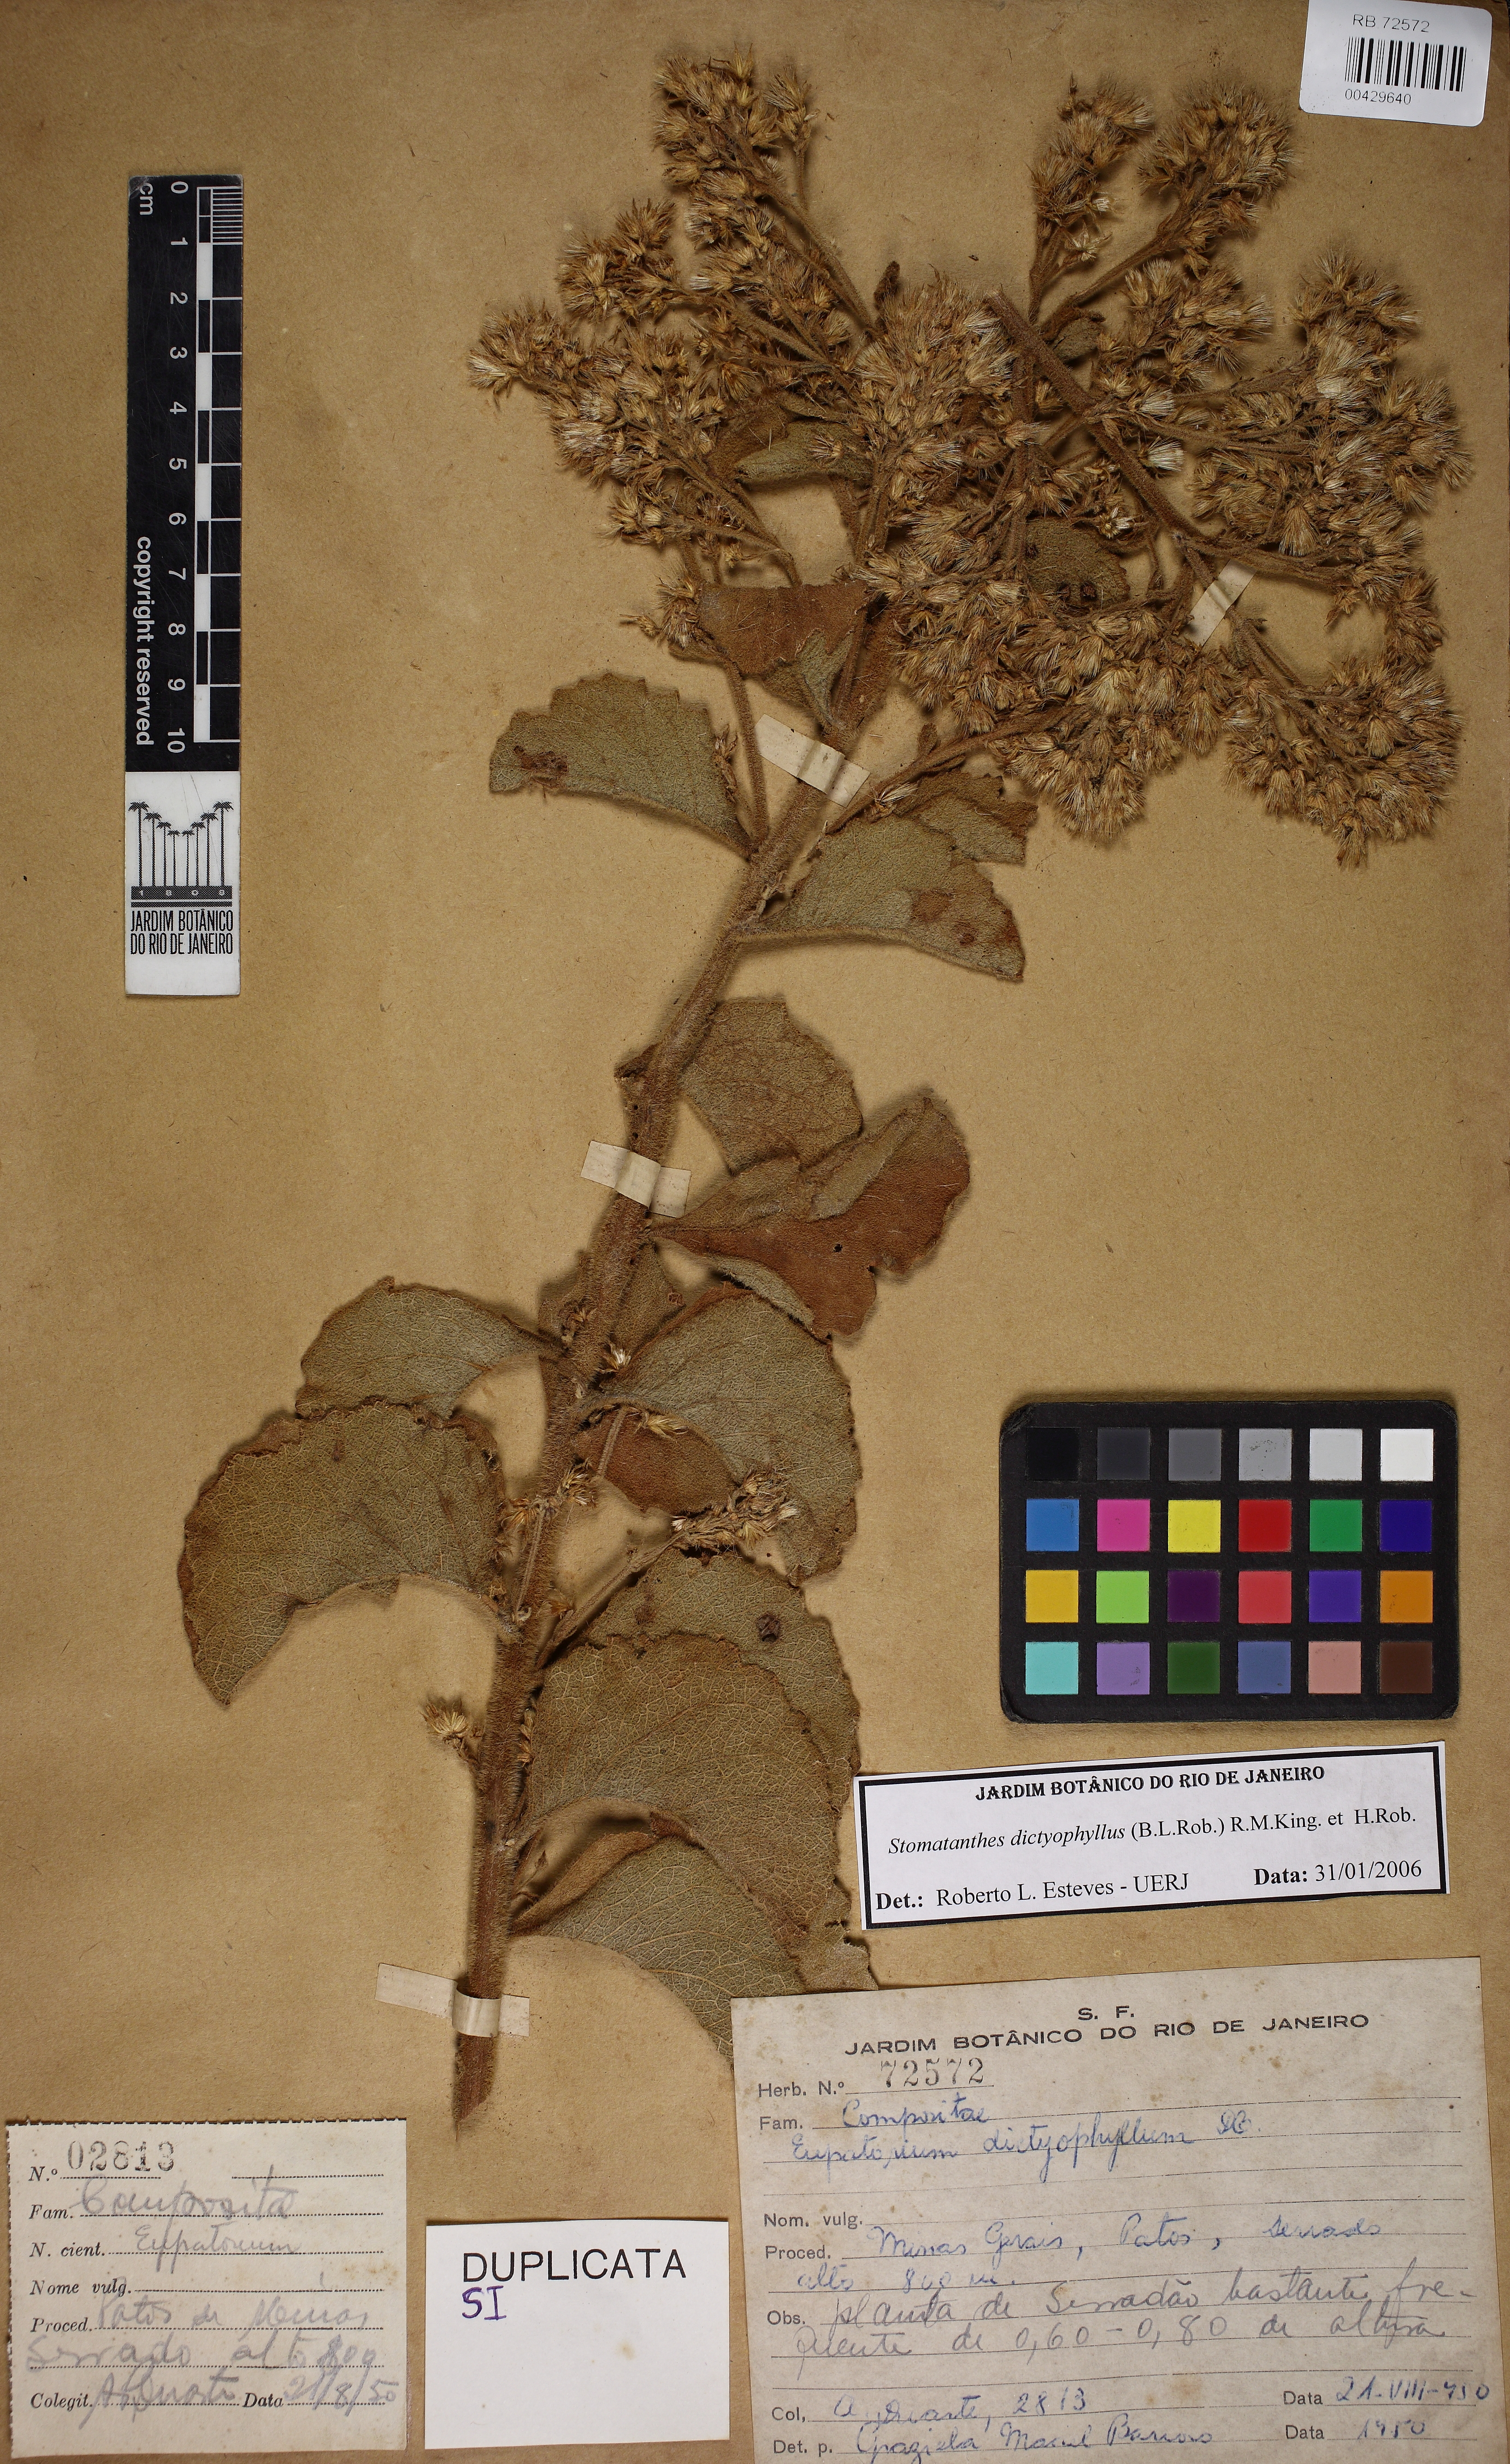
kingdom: Plantae
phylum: Tracheophyta
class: Magnoliopsida
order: Asterales
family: Asteraceae
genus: Stomatanthes
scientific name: Stomatanthes dictyophyllus
